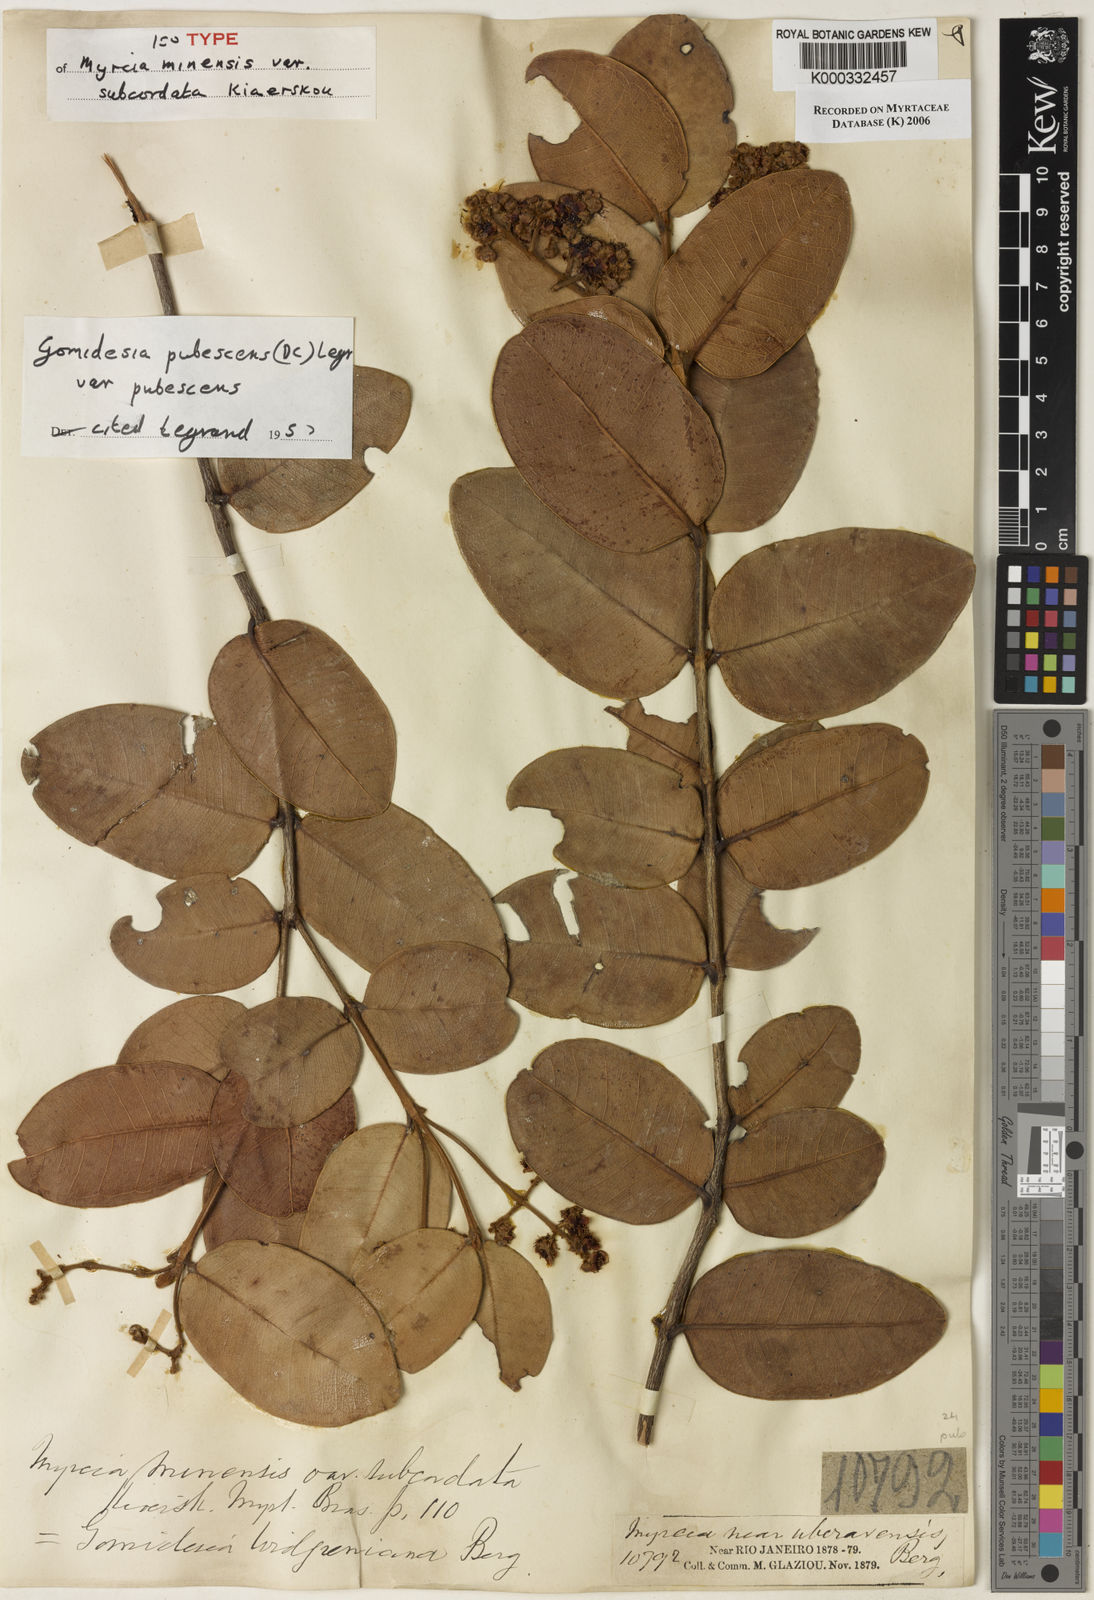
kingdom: Plantae
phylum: Tracheophyta
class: Magnoliopsida
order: Myrtales
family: Myrtaceae
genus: Myrcia
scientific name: Myrcia pubescens
